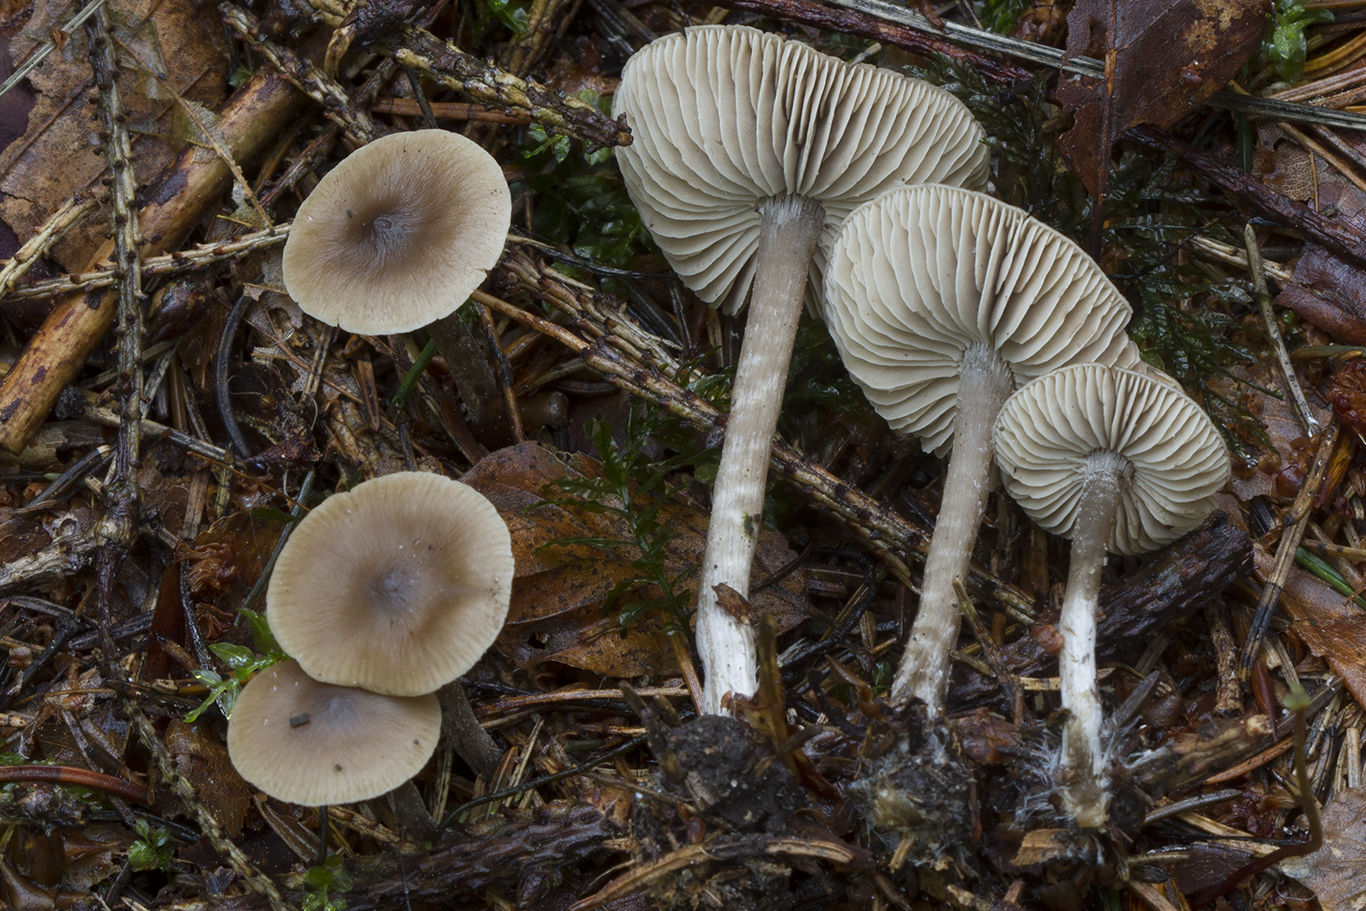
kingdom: Fungi
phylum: Basidiomycota
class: Agaricomycetes
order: Agaricales
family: Lyophyllaceae
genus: Myochromella
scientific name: Myochromella boudieri
